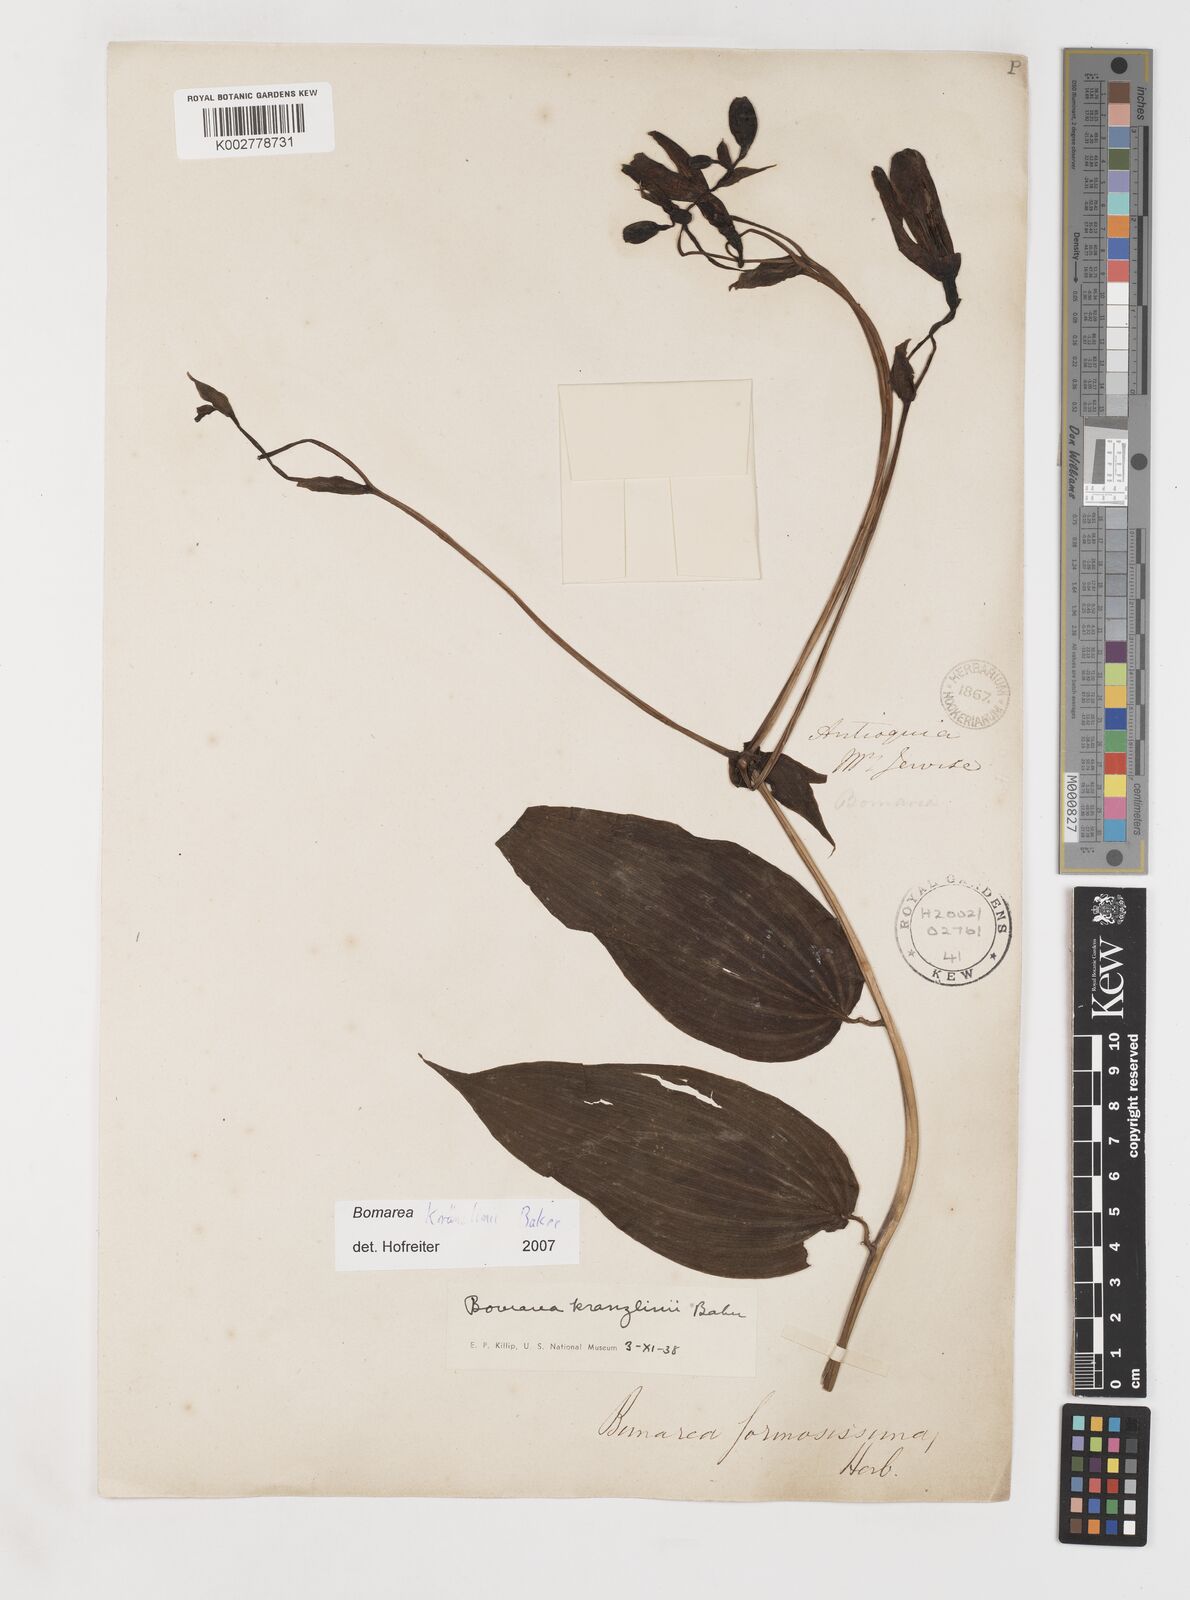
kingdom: Plantae
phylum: Tracheophyta
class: Liliopsida
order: Liliales
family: Alstroemeriaceae
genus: Bomarea
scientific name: Bomarea kraenzlinii
